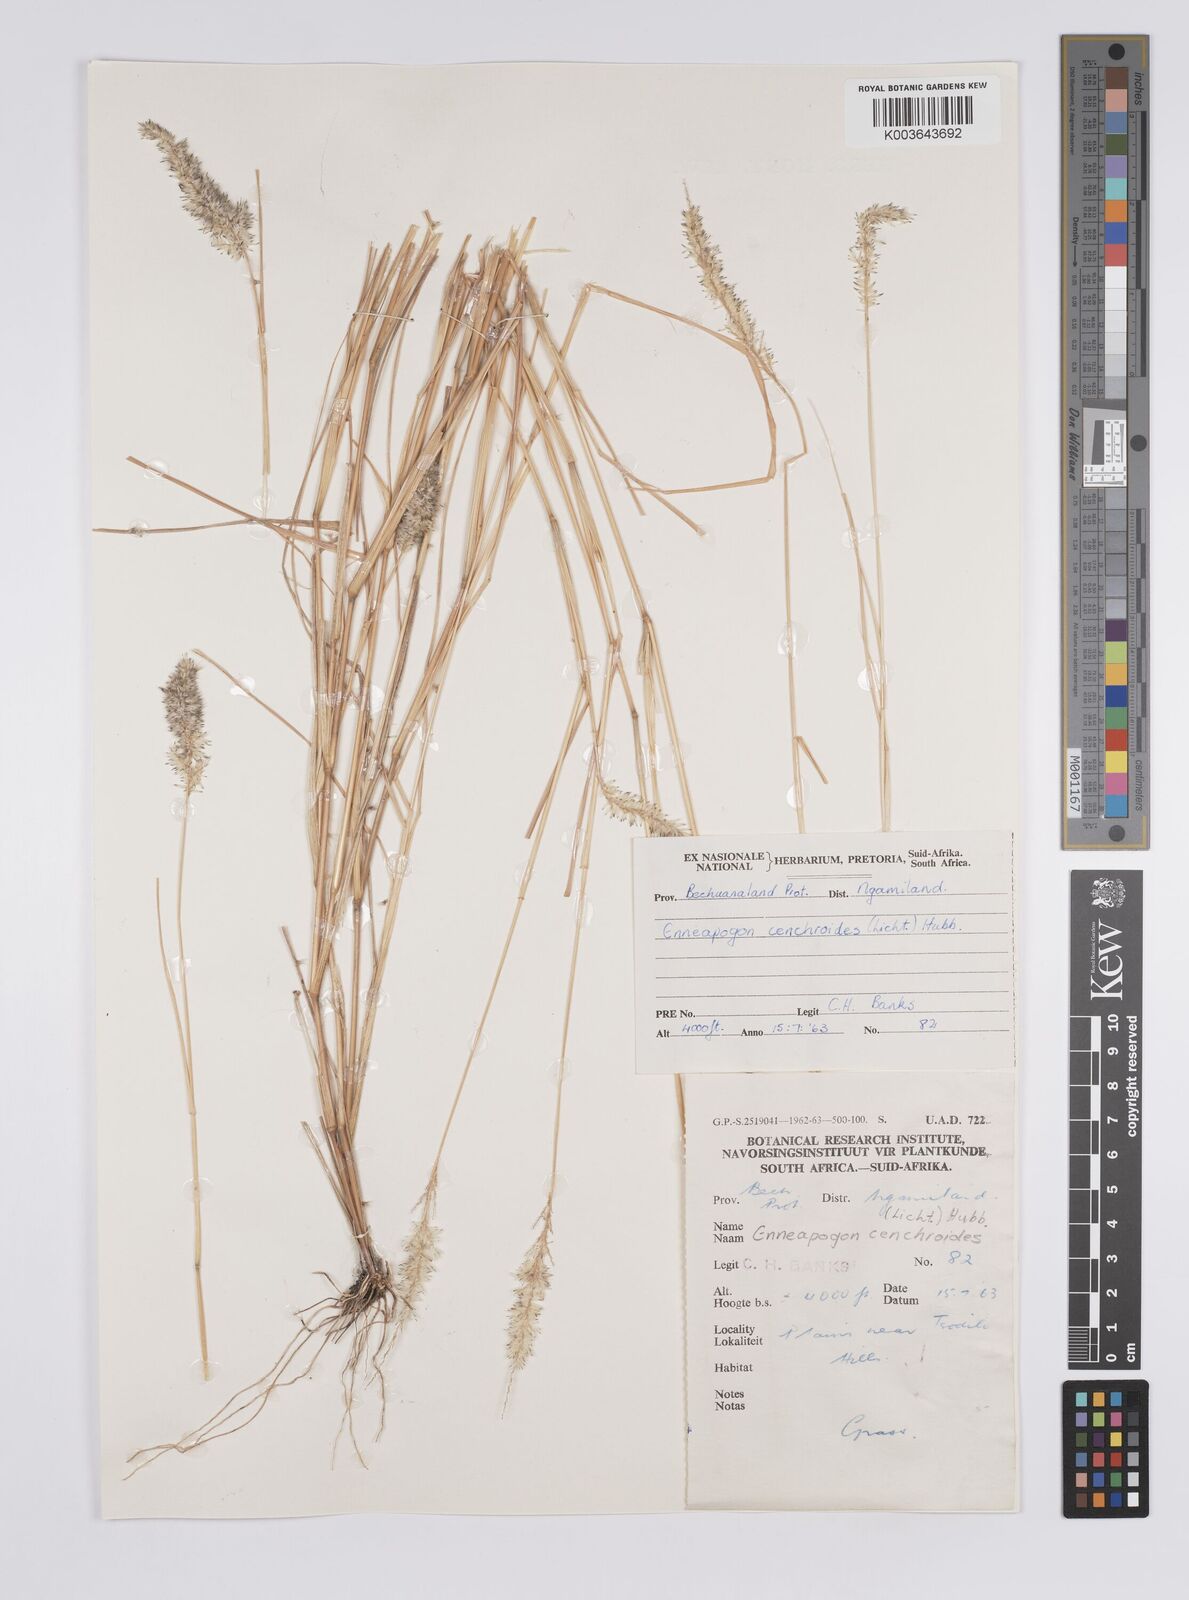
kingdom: Plantae
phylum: Tracheophyta
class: Liliopsida
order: Poales
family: Poaceae
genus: Enneapogon
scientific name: Enneapogon cenchroides
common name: Soft feather pappusgrass
